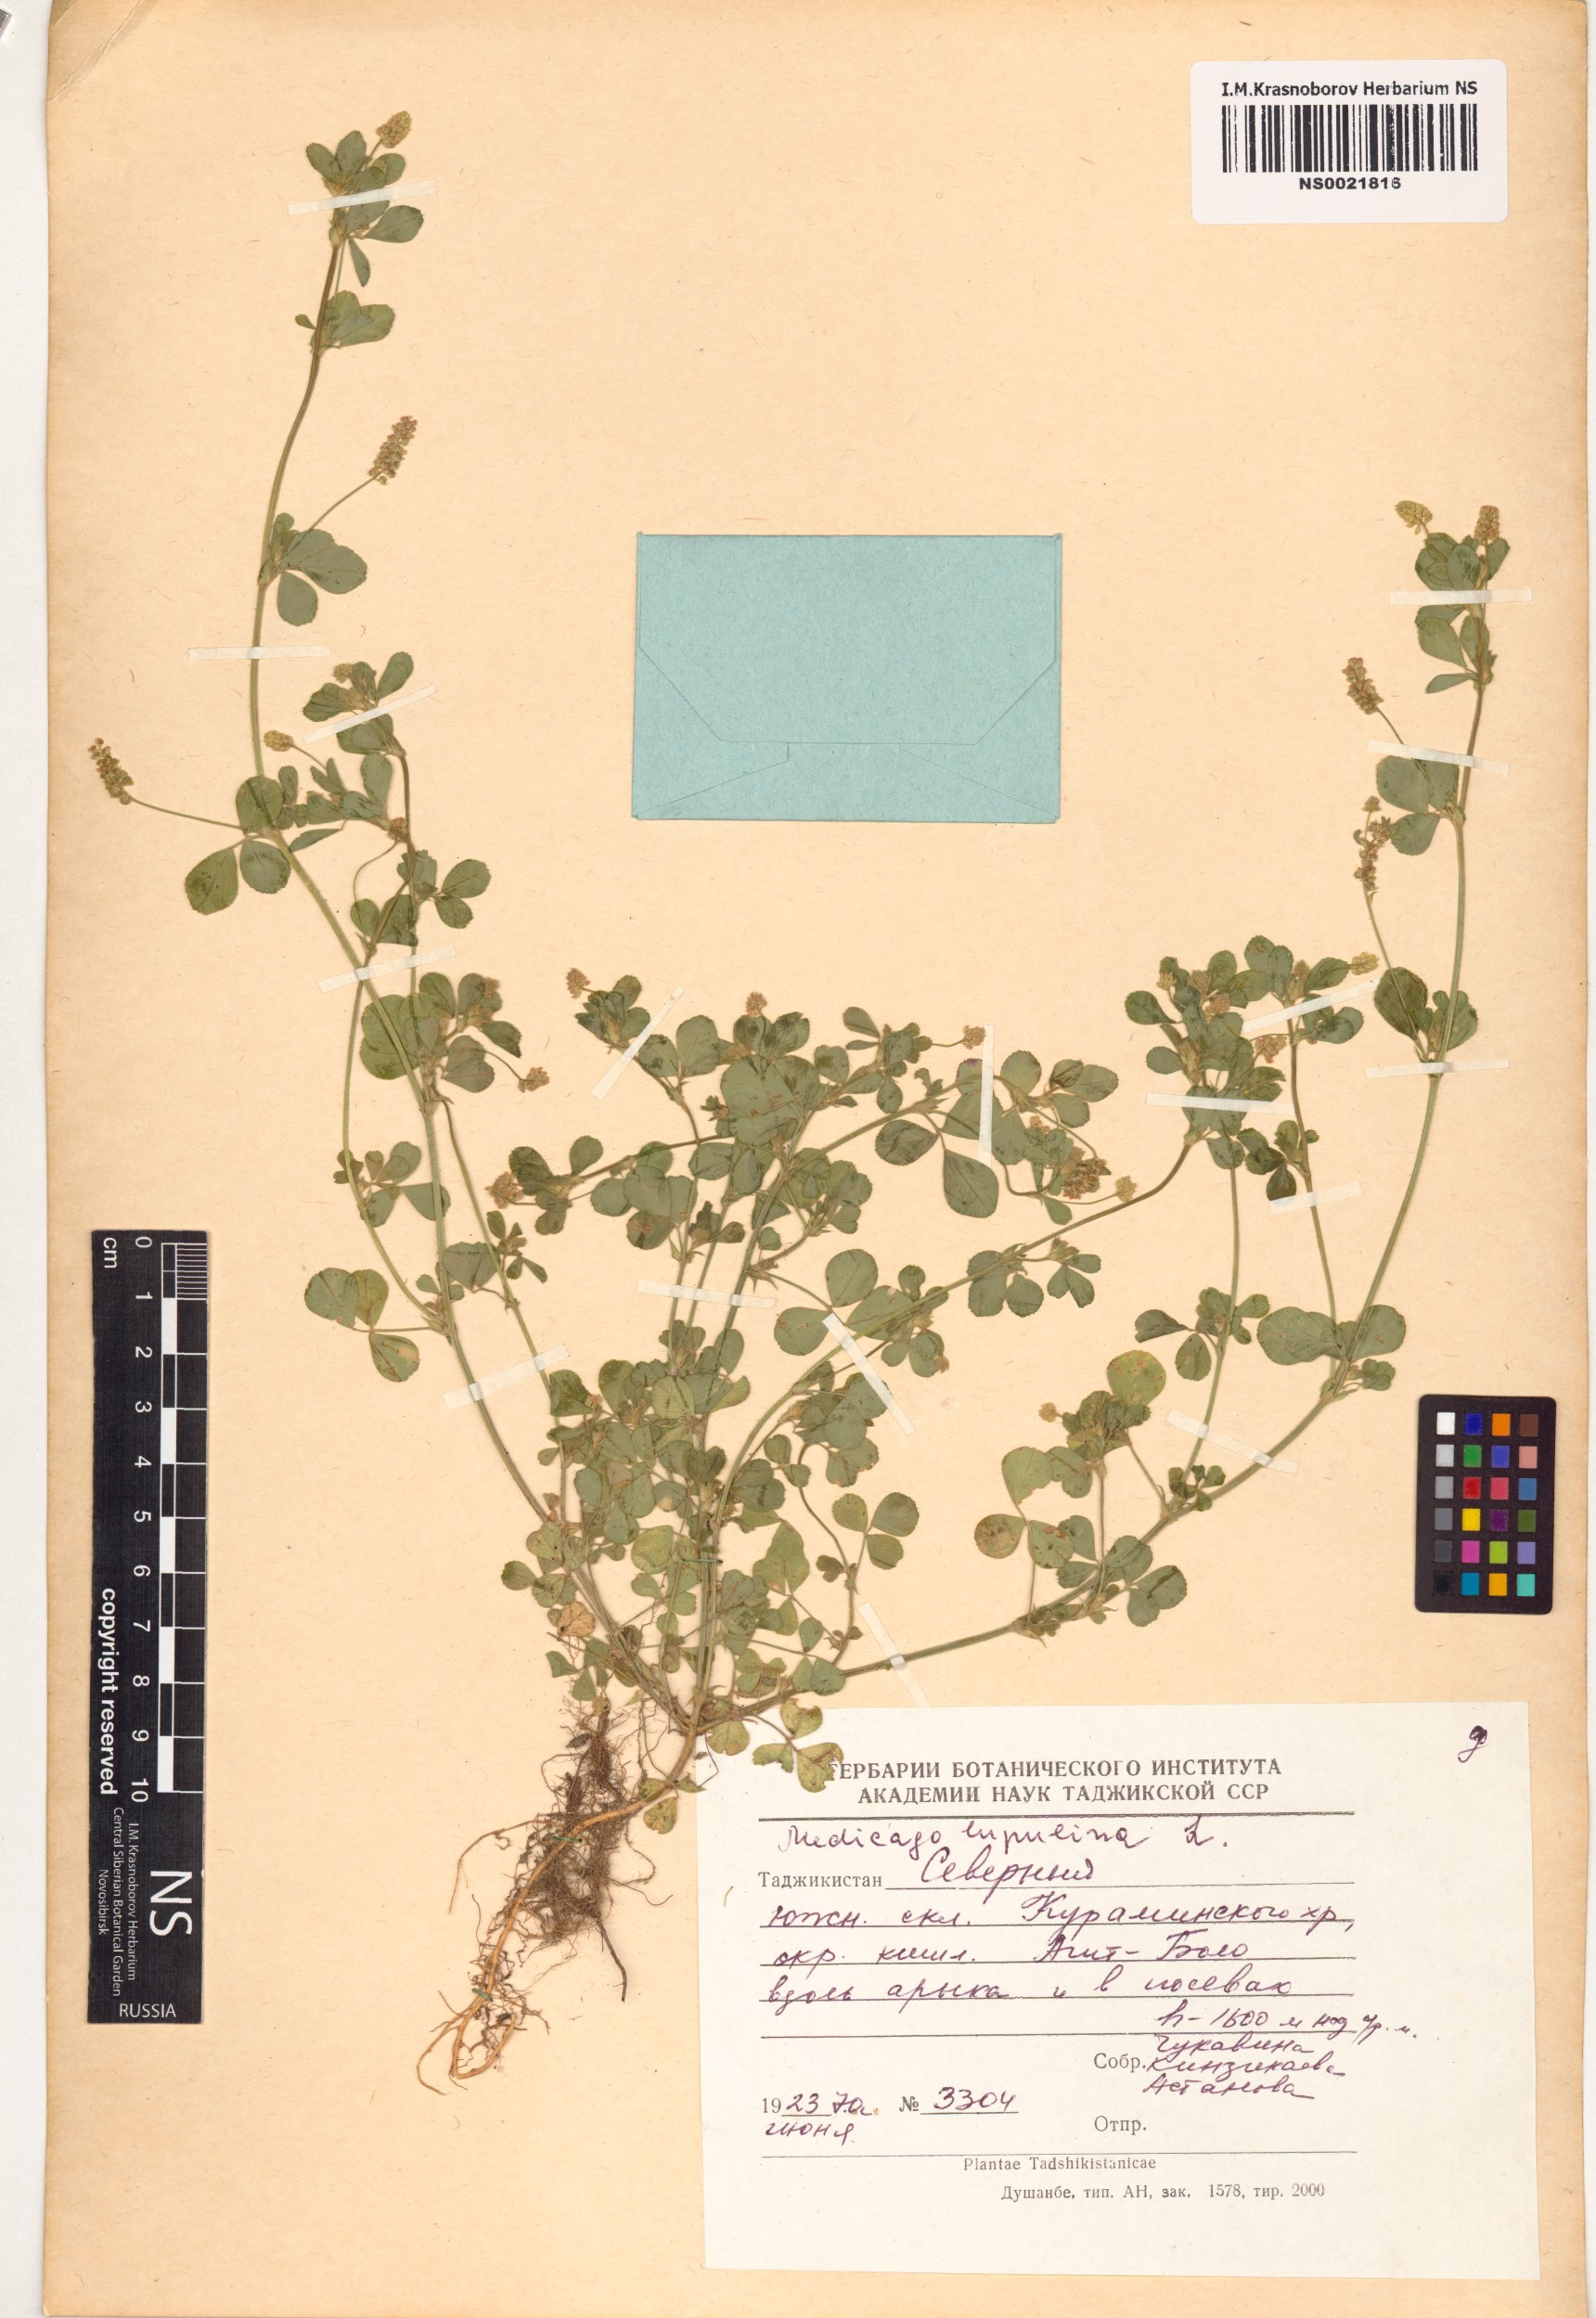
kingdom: Plantae
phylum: Tracheophyta
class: Magnoliopsida
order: Fabales
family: Fabaceae
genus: Medicago
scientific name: Medicago lupulina
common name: Black medick
